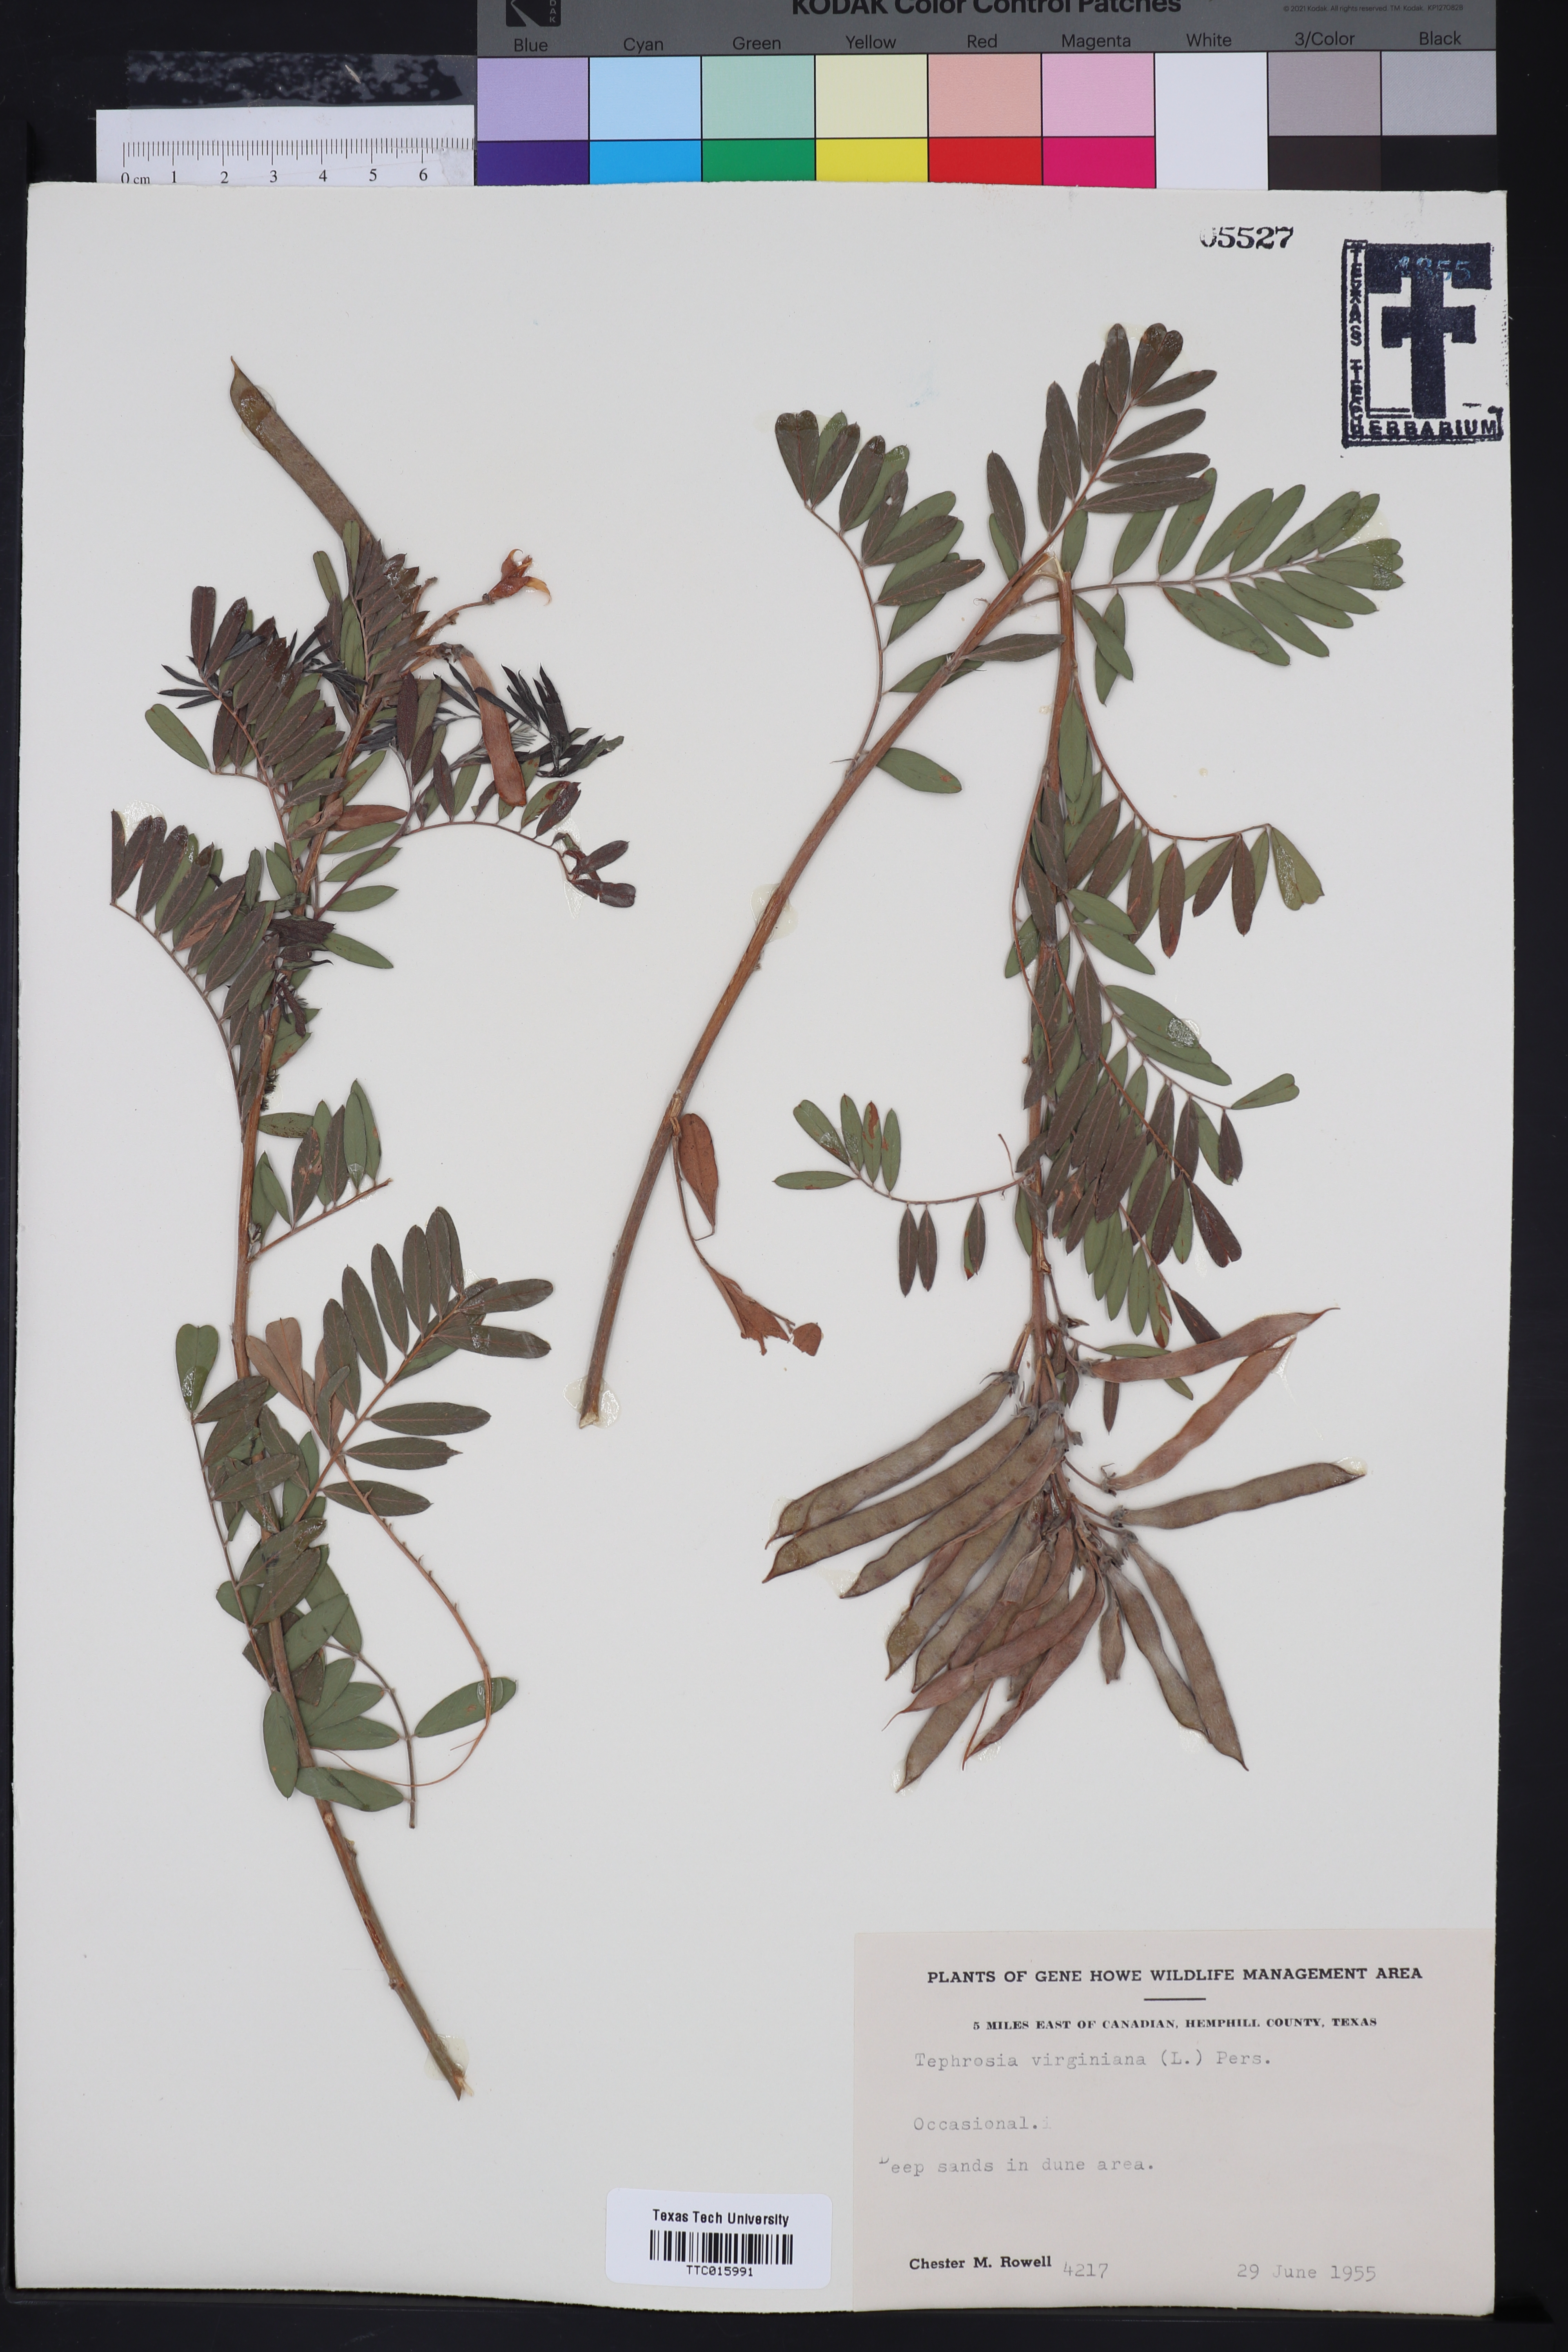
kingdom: Plantae
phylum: Tracheophyta
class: Magnoliopsida
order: Fabales
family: Fabaceae
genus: Tephrosia
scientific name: Tephrosia virginiana
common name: Rabbit-pea
